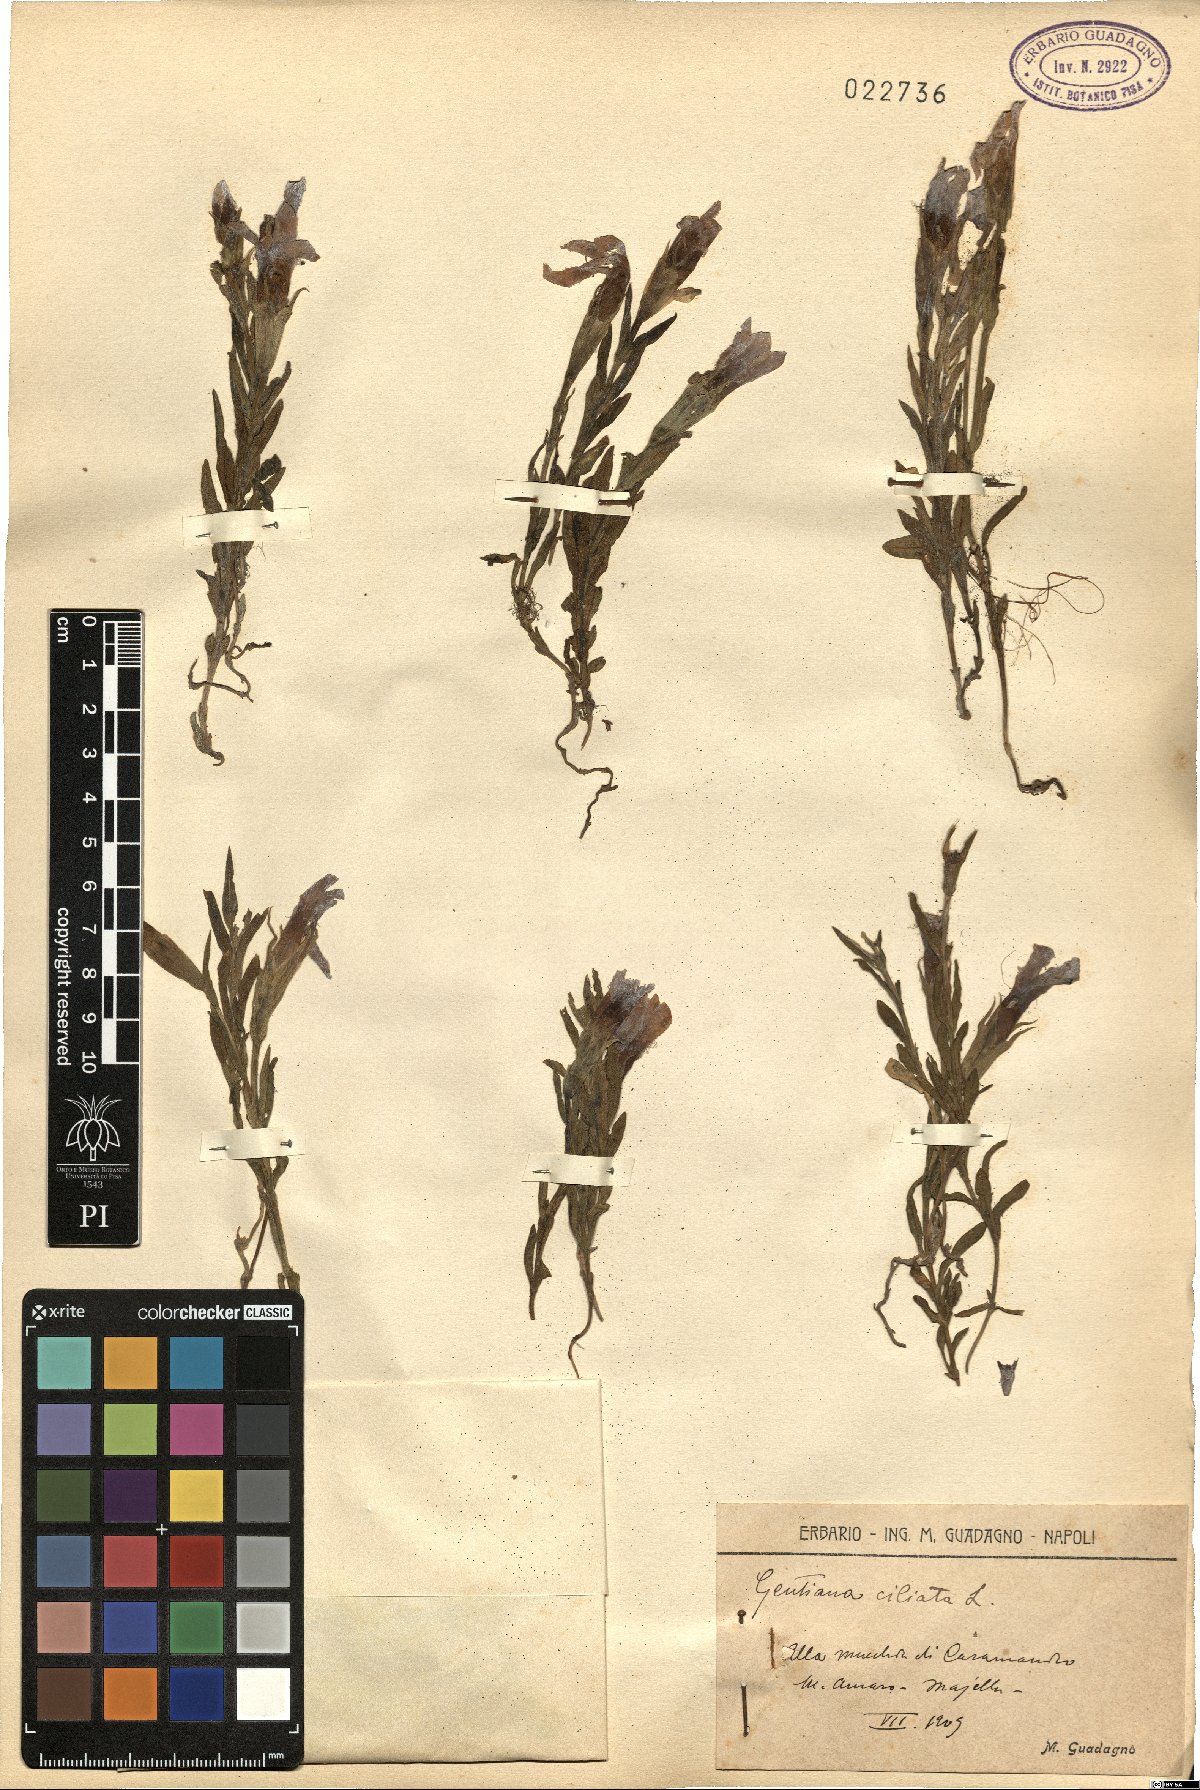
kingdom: Plantae
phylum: Tracheophyta
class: Magnoliopsida
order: Gentianales
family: Gentianaceae
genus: Gentianopsis
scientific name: Gentianopsis ciliata
